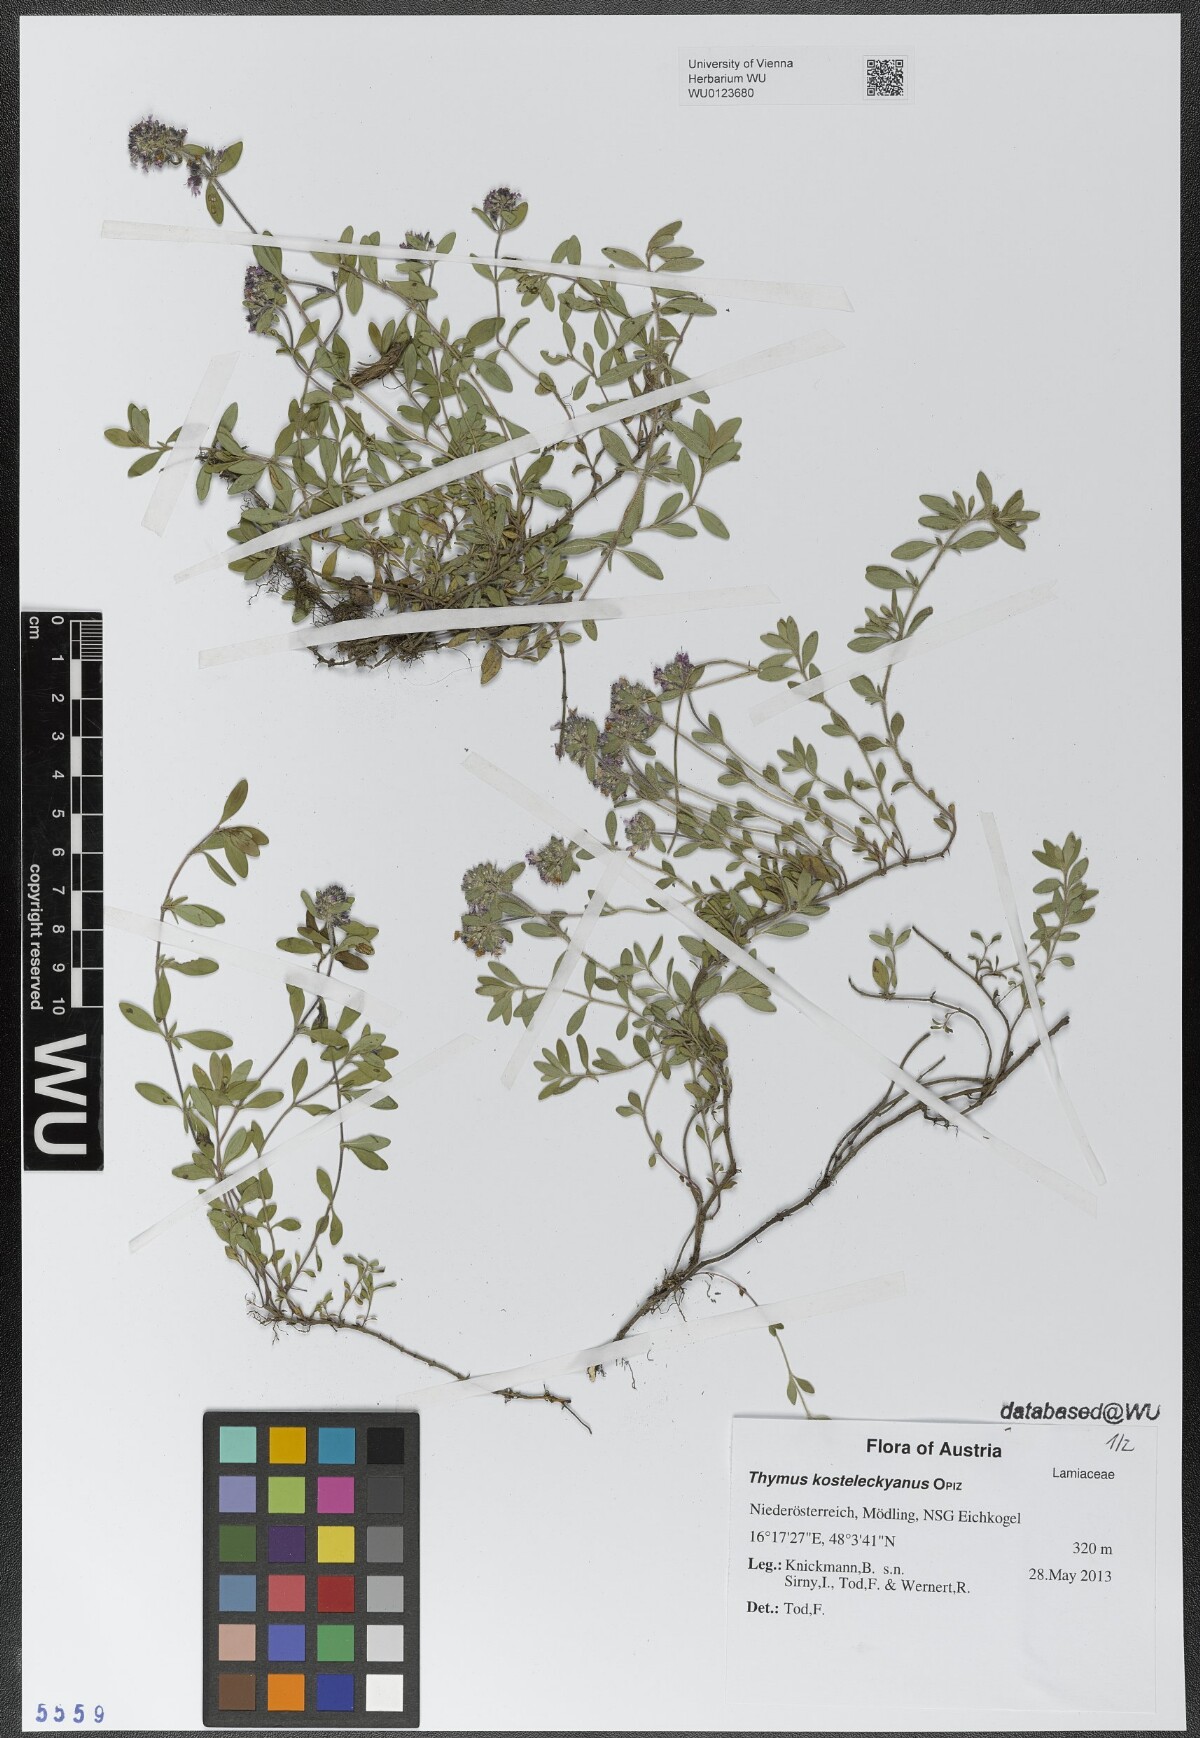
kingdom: Plantae
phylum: Tracheophyta
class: Magnoliopsida
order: Lamiales
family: Lamiaceae
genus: Thymus
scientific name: Thymus kosteleckyanus
